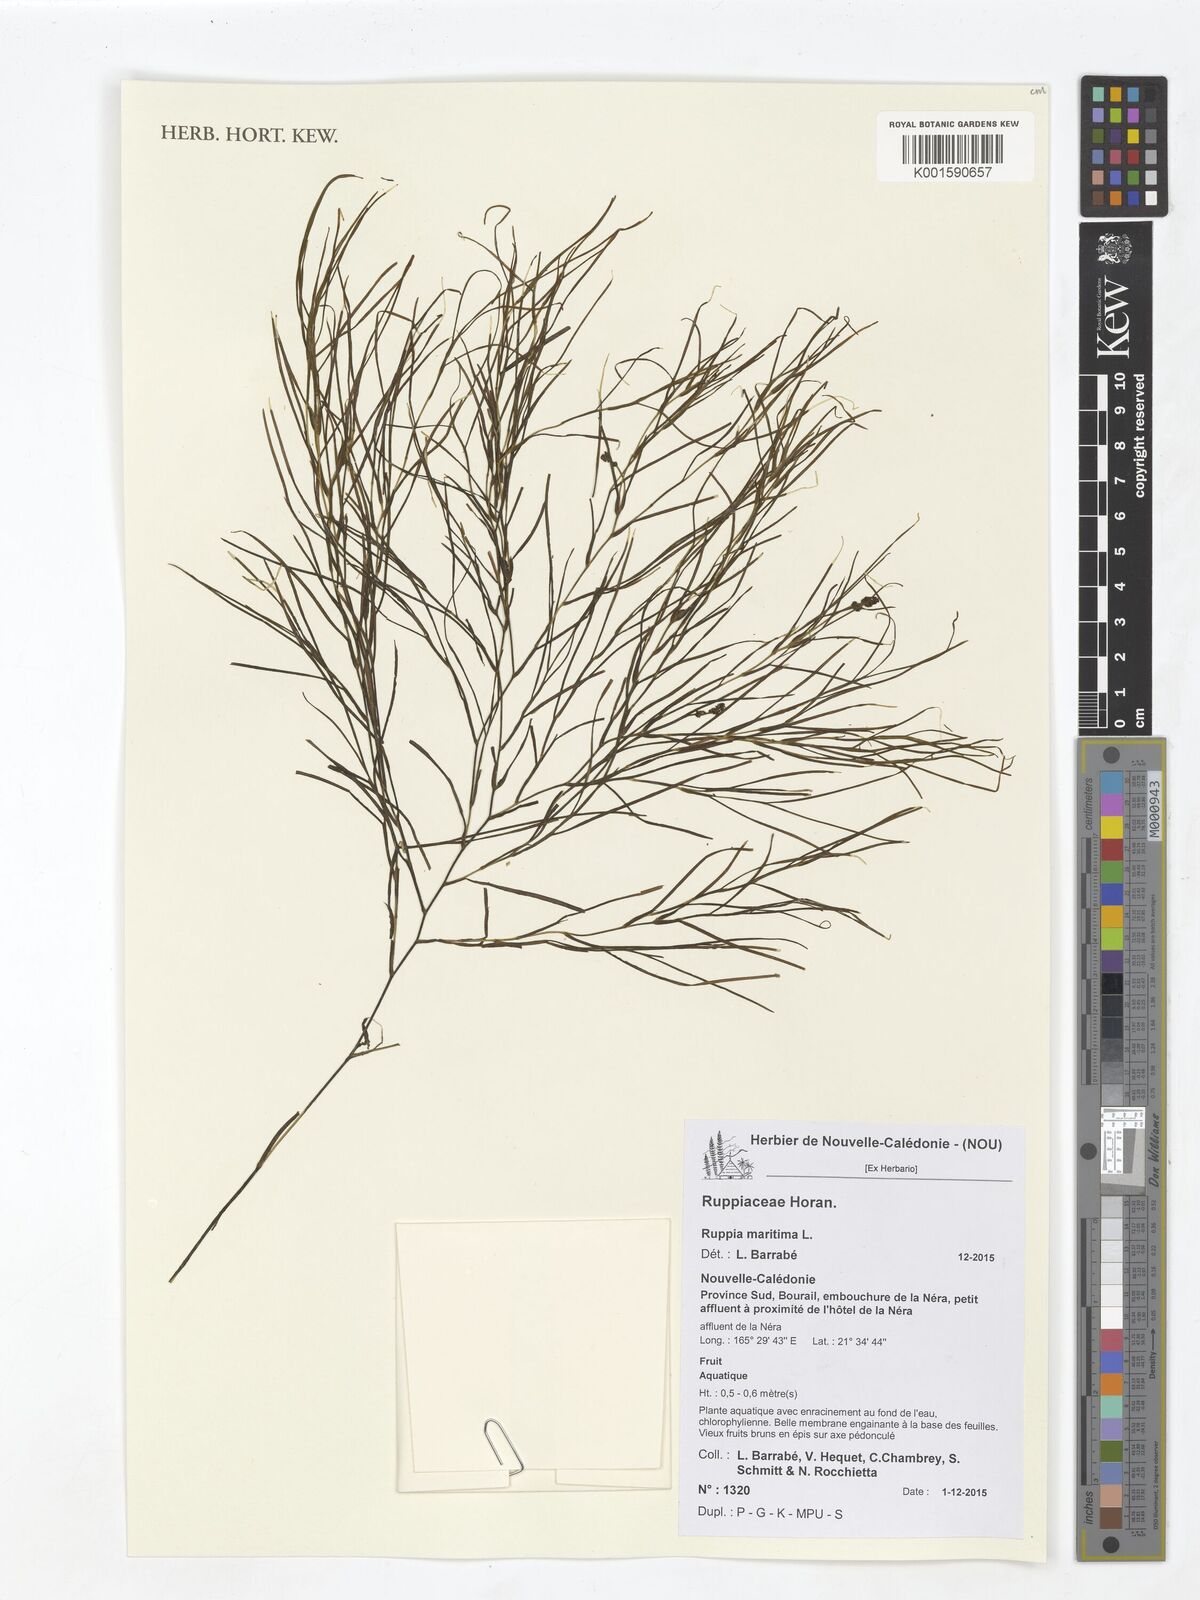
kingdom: Plantae
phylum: Tracheophyta
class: Liliopsida
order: Alismatales
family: Ruppiaceae
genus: Ruppia
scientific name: Ruppia maritima
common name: Beaked tasselweed
